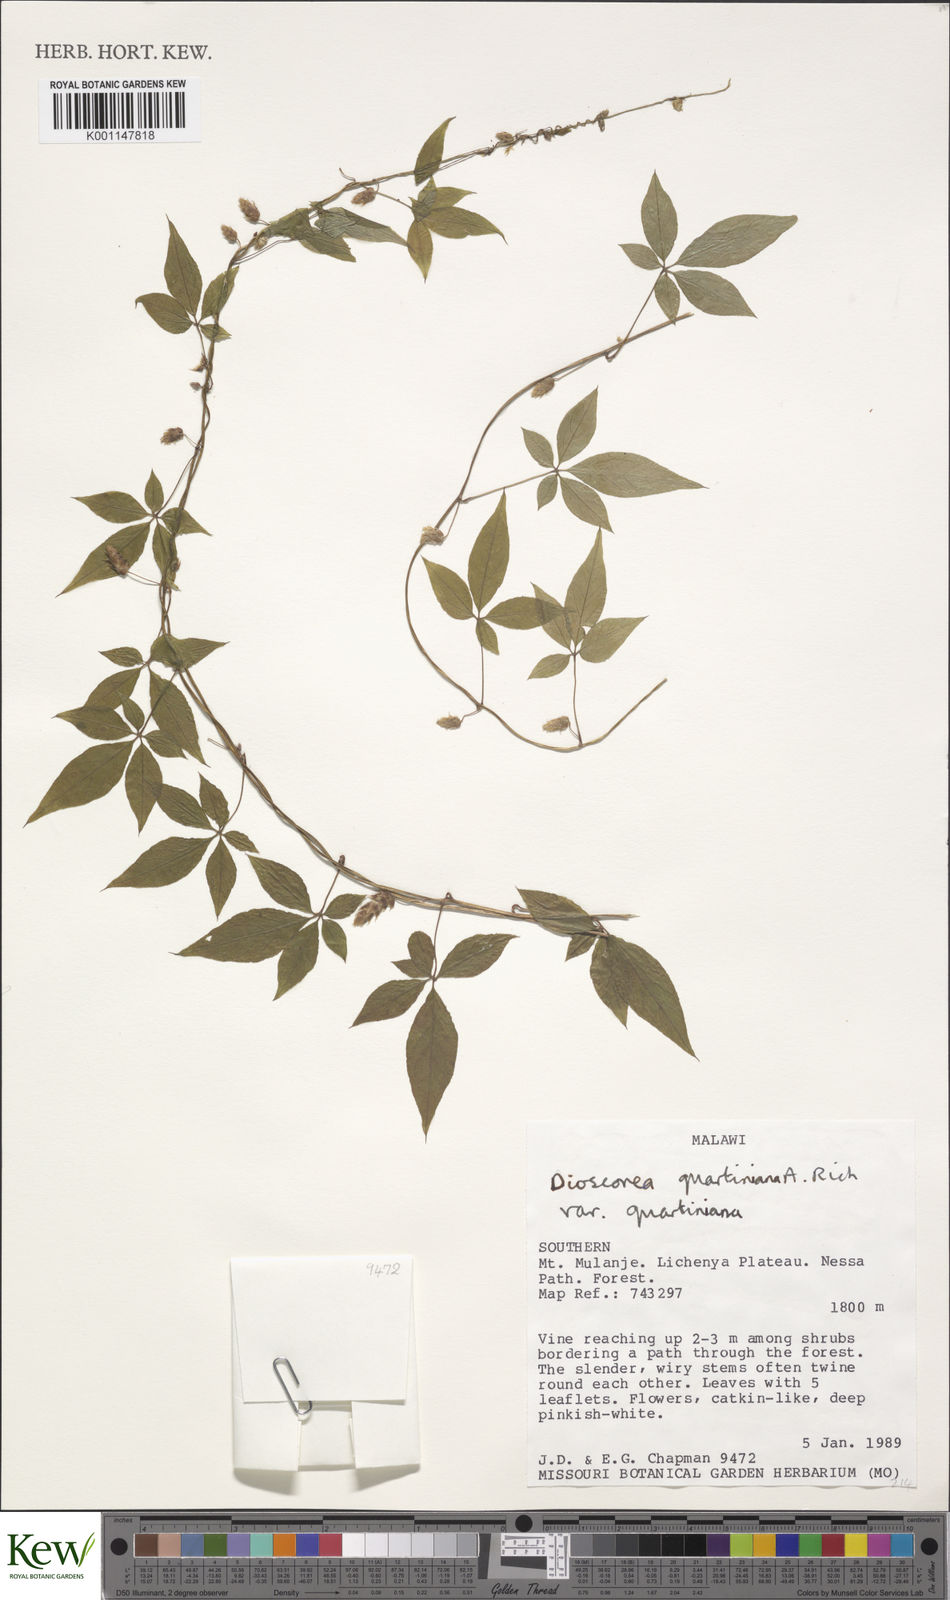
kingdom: Plantae
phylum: Tracheophyta
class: Liliopsida
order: Dioscoreales
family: Dioscoreaceae
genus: Dioscorea
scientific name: Dioscorea quartiniana
